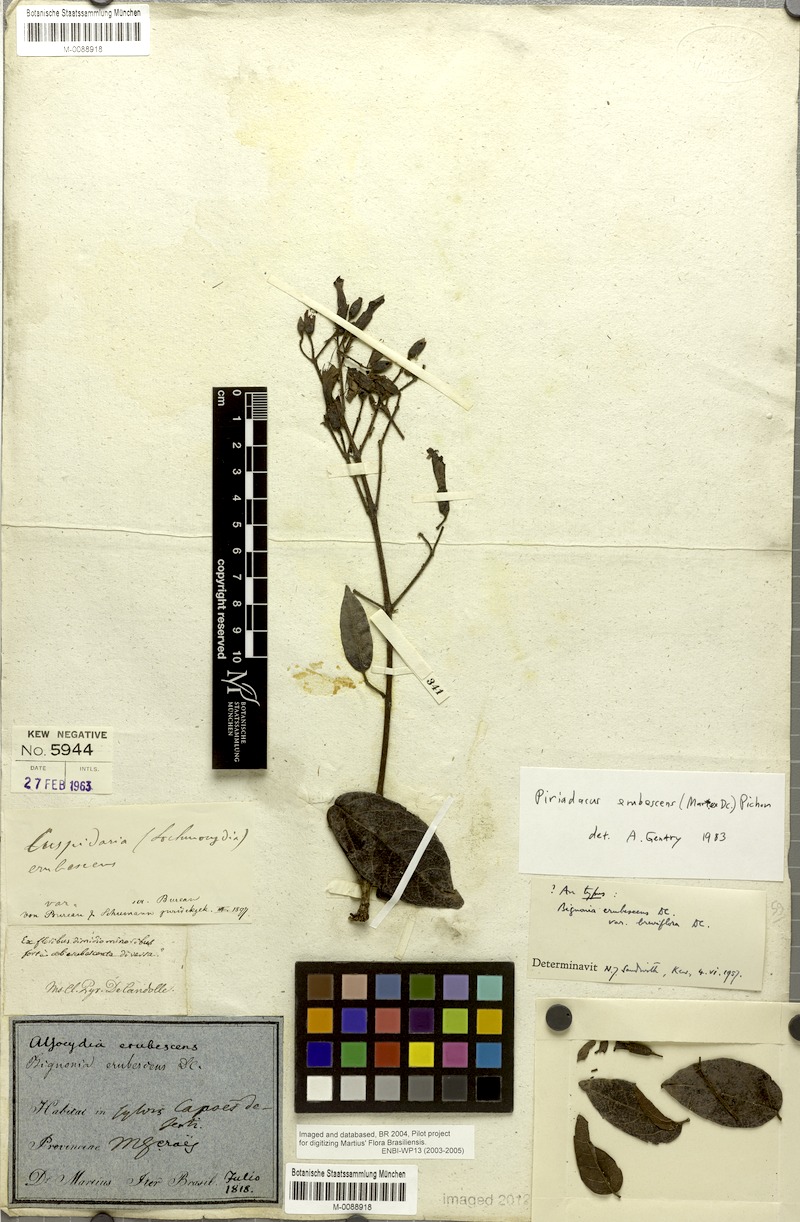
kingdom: Plantae
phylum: Tracheophyta
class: Magnoliopsida
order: Lamiales
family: Bignoniaceae
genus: Fridericia
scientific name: Fridericia erubescens
